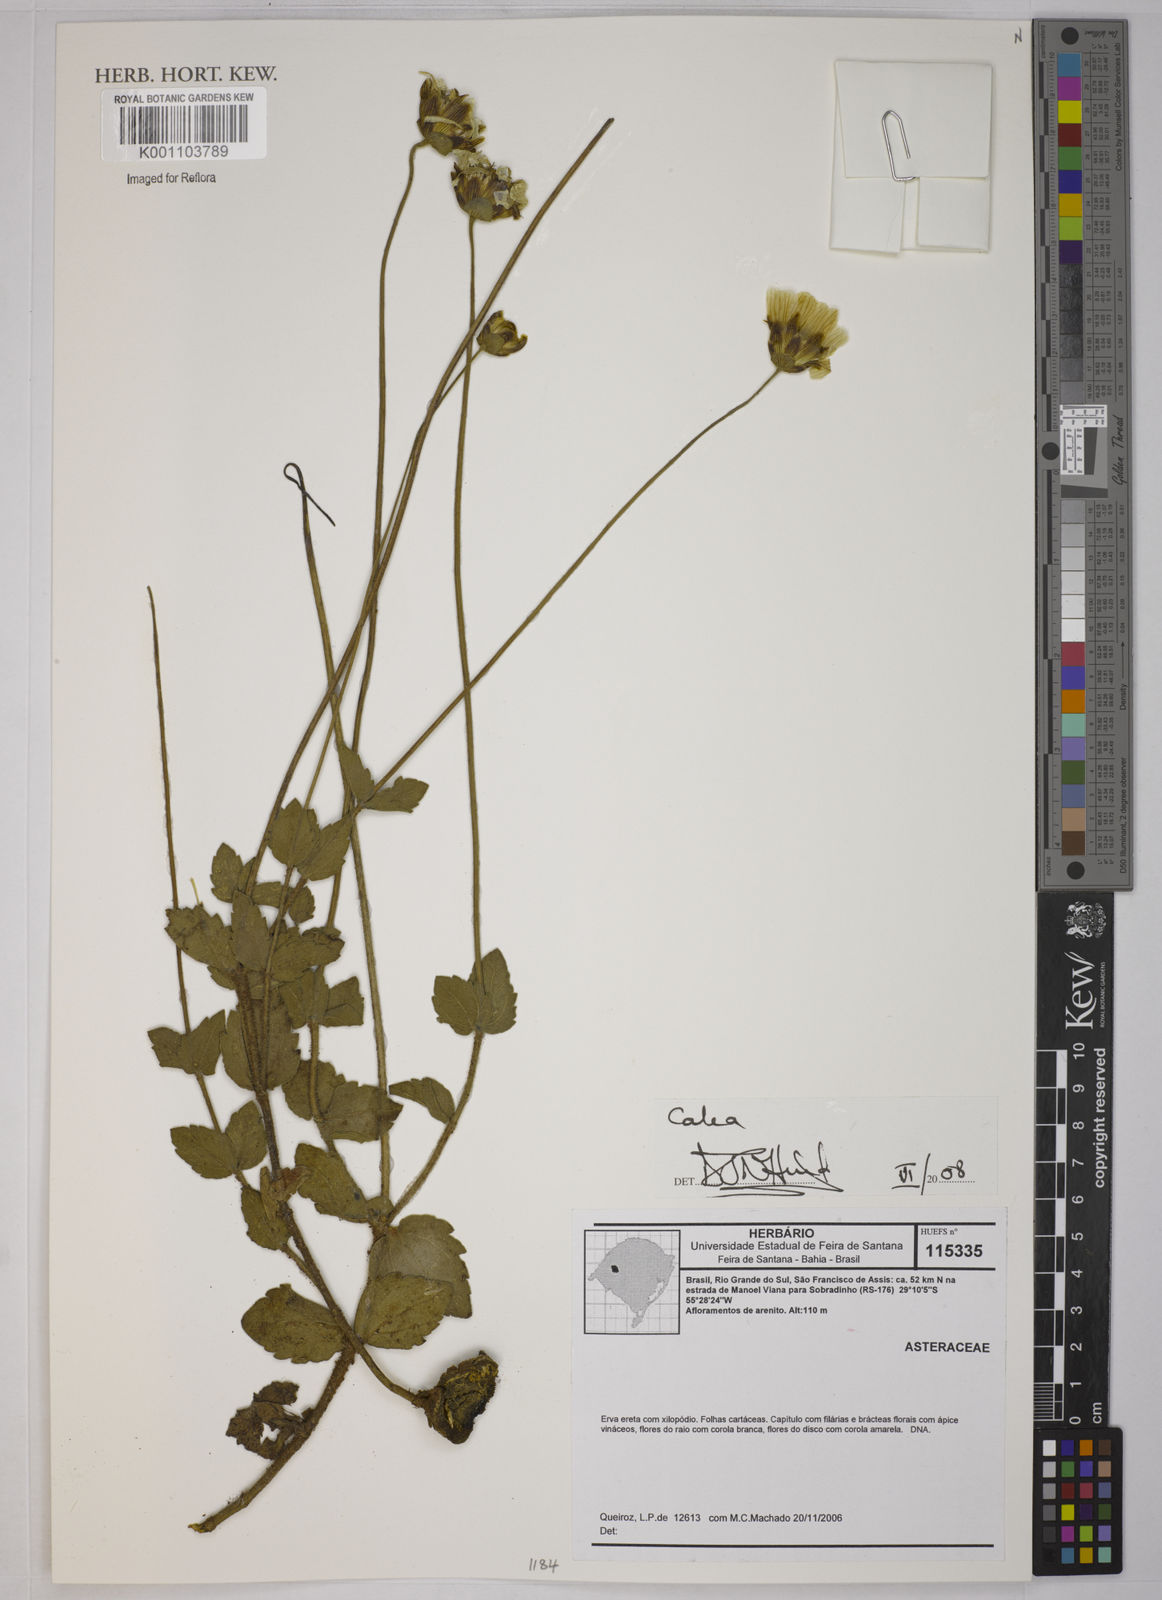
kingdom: Plantae
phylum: Tracheophyta
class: Magnoliopsida
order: Asterales
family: Asteraceae
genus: Calea
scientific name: Calea
